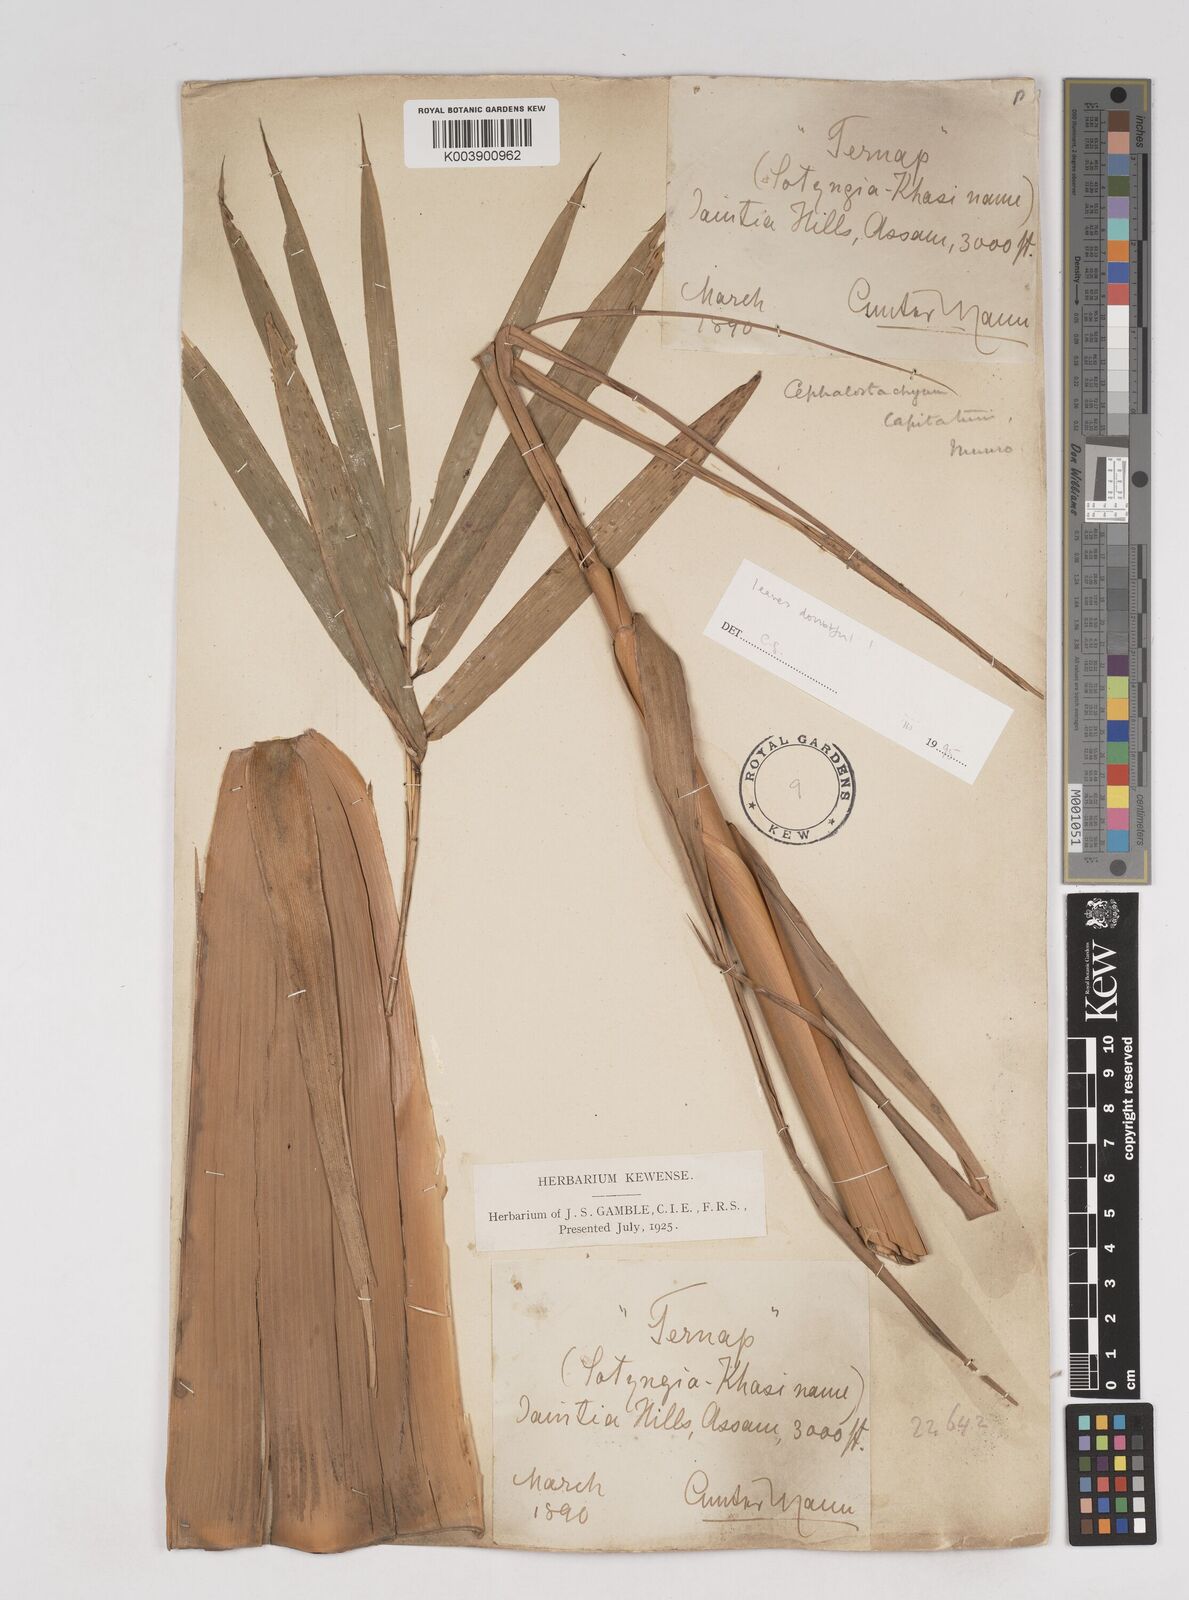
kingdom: Plantae
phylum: Tracheophyta
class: Liliopsida
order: Poales
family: Poaceae
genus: Cephalostachyum
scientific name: Cephalostachyum capitatum
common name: Hollow bamboo
